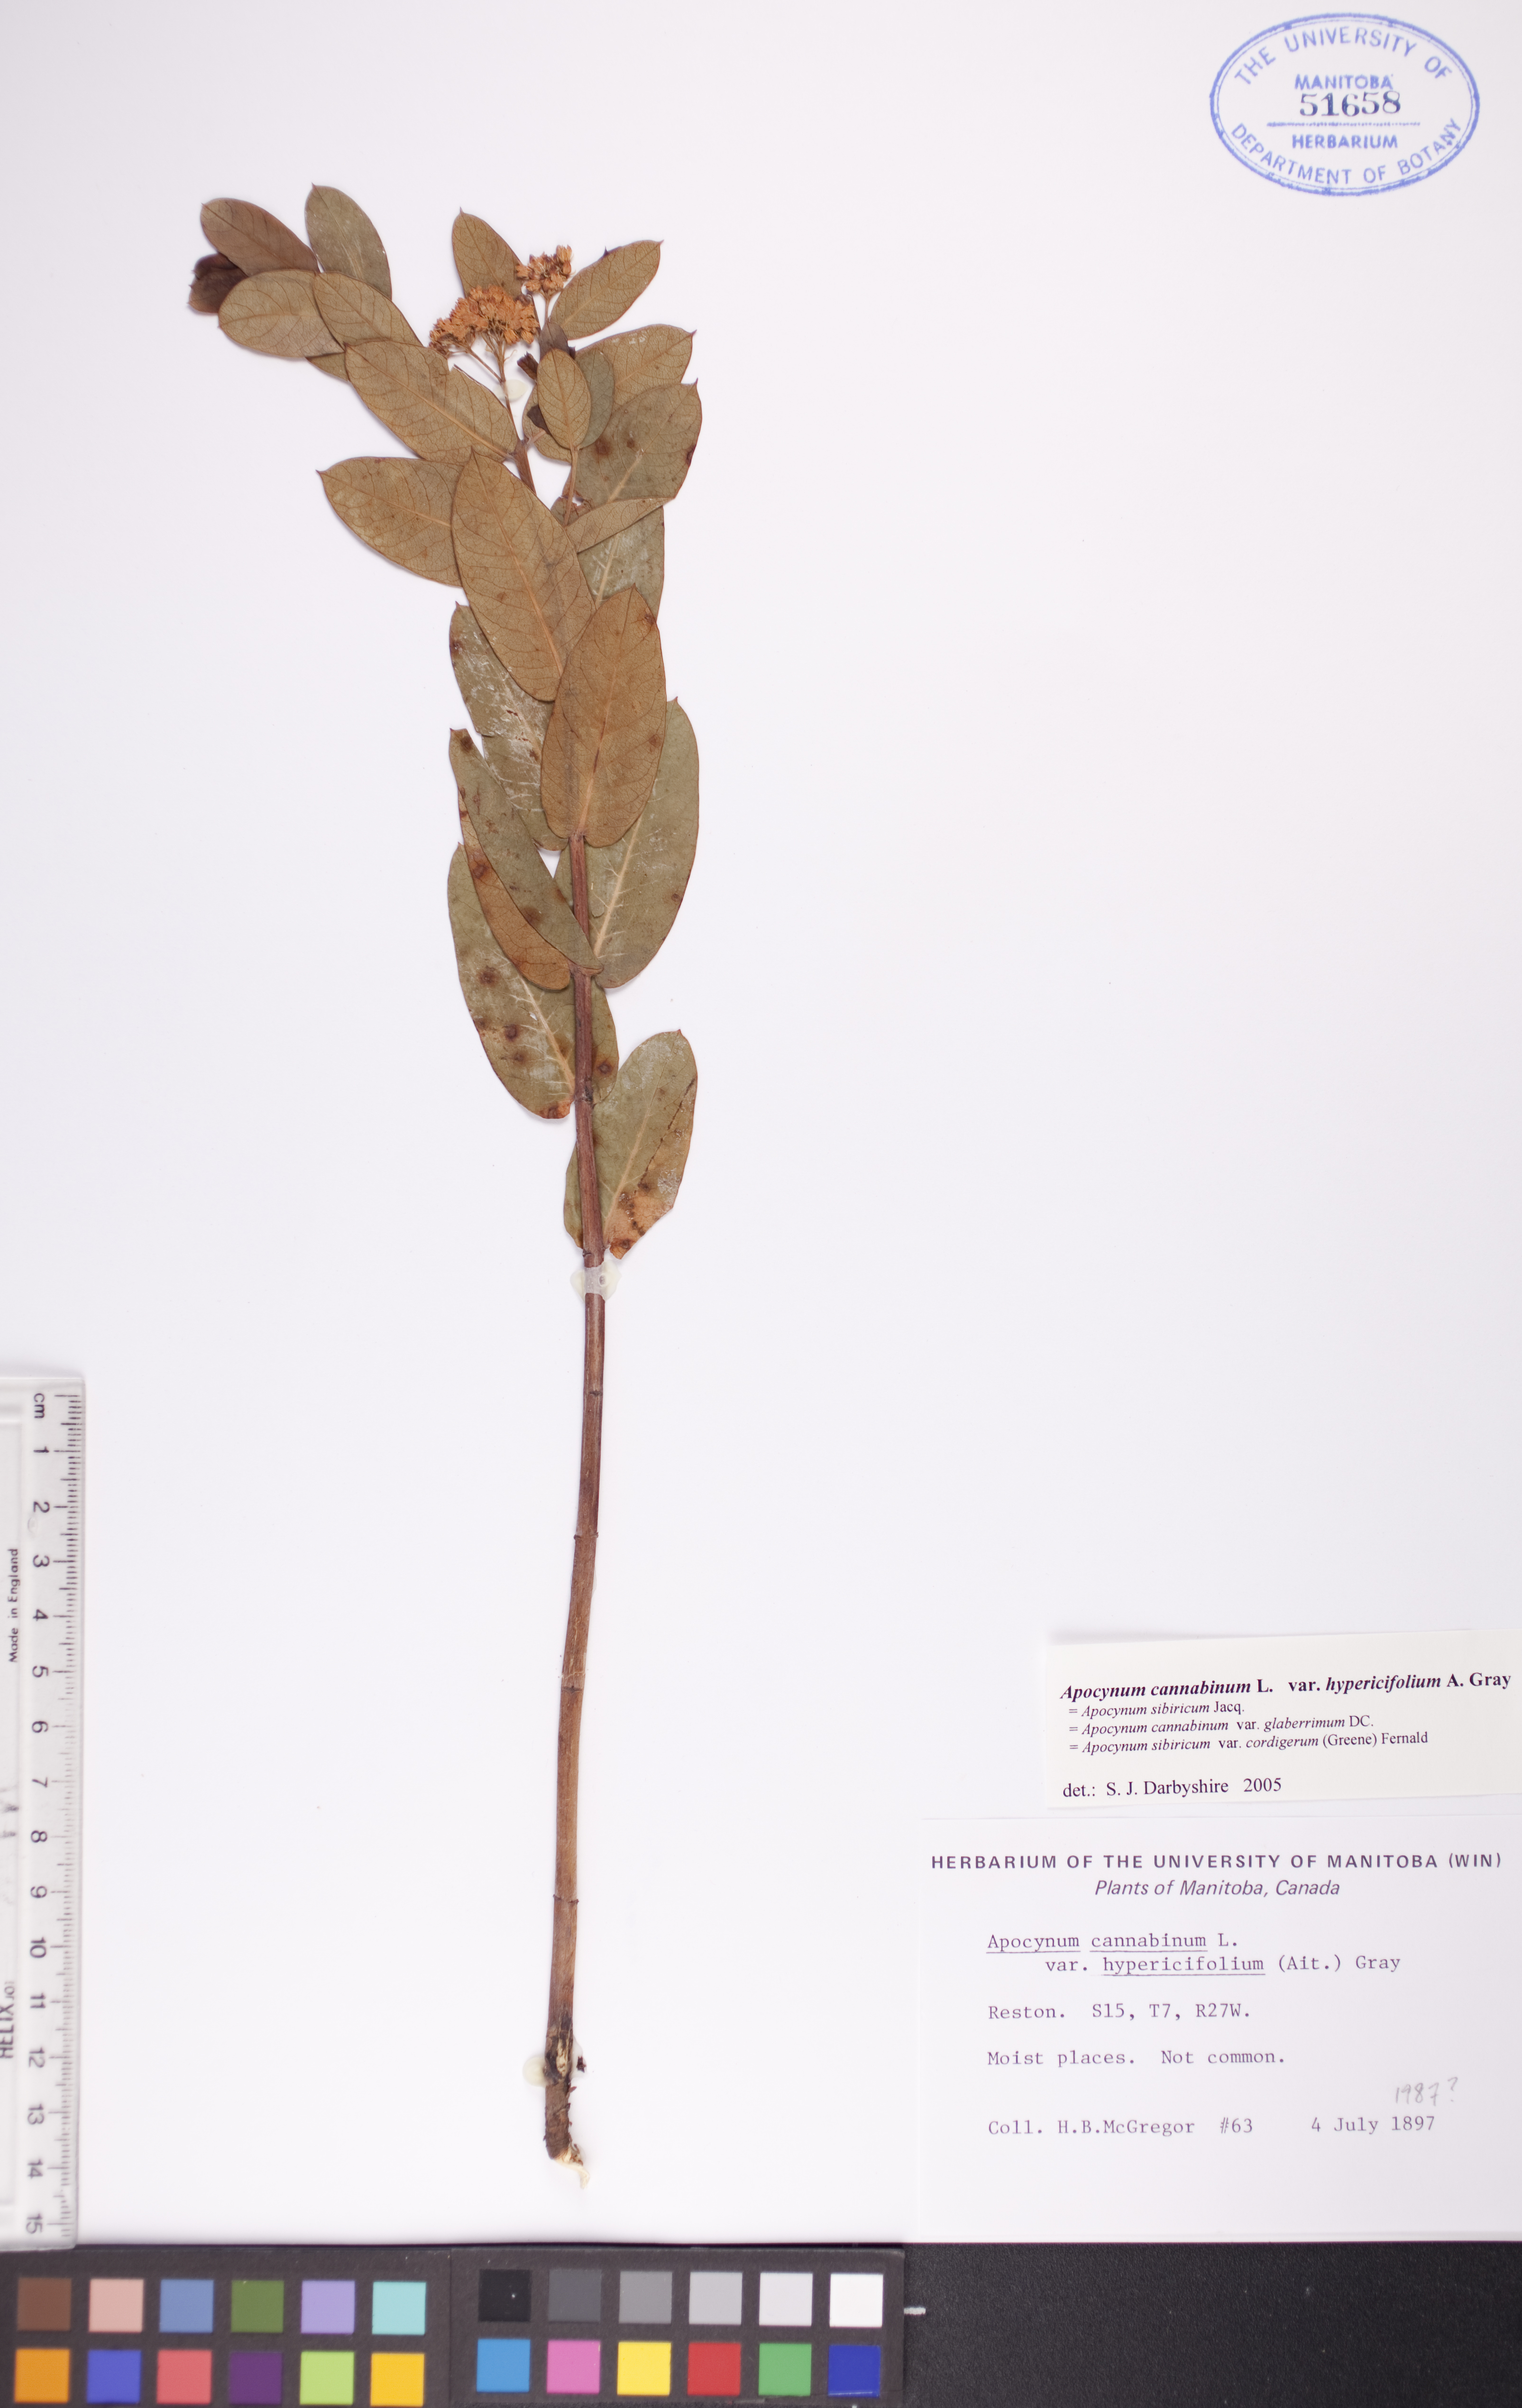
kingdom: Plantae
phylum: Tracheophyta
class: Magnoliopsida
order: Gentianales
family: Apocynaceae
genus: Apocynum
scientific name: Apocynum cannabinum
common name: Hemp dogbane
